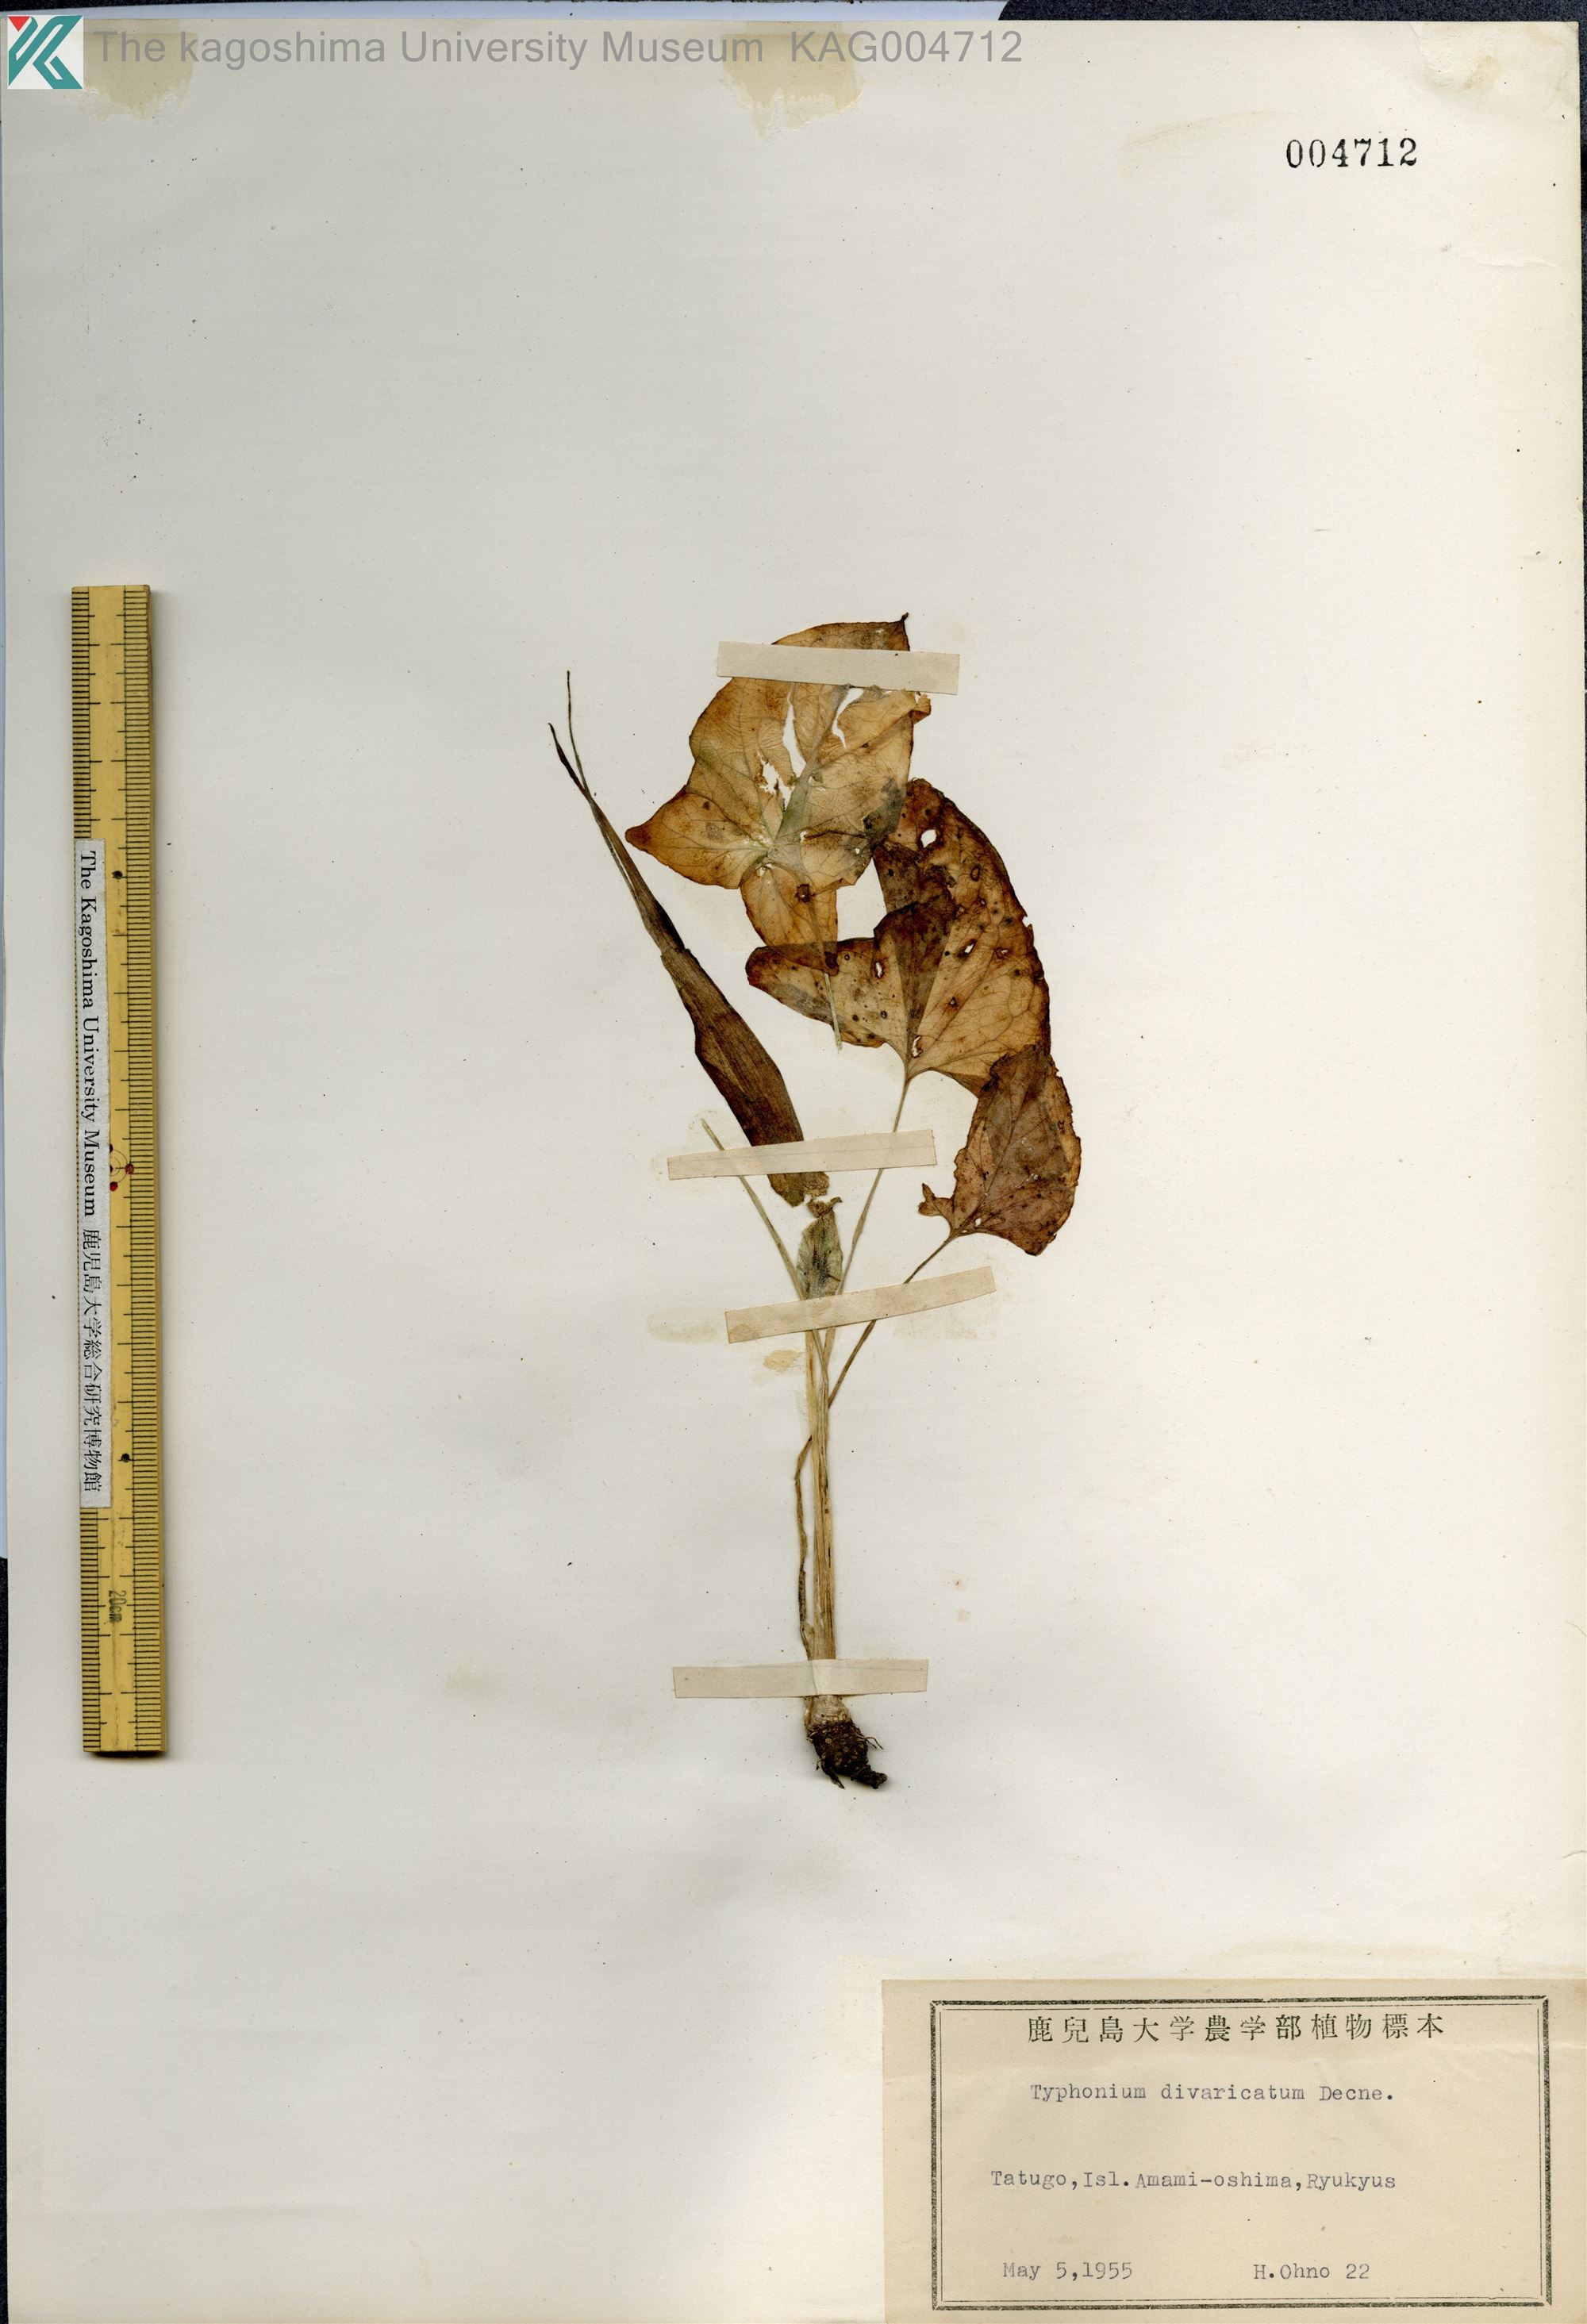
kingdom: Plantae
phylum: Tracheophyta
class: Liliopsida
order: Alismatales
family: Araceae
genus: Typhonium
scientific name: Typhonium
